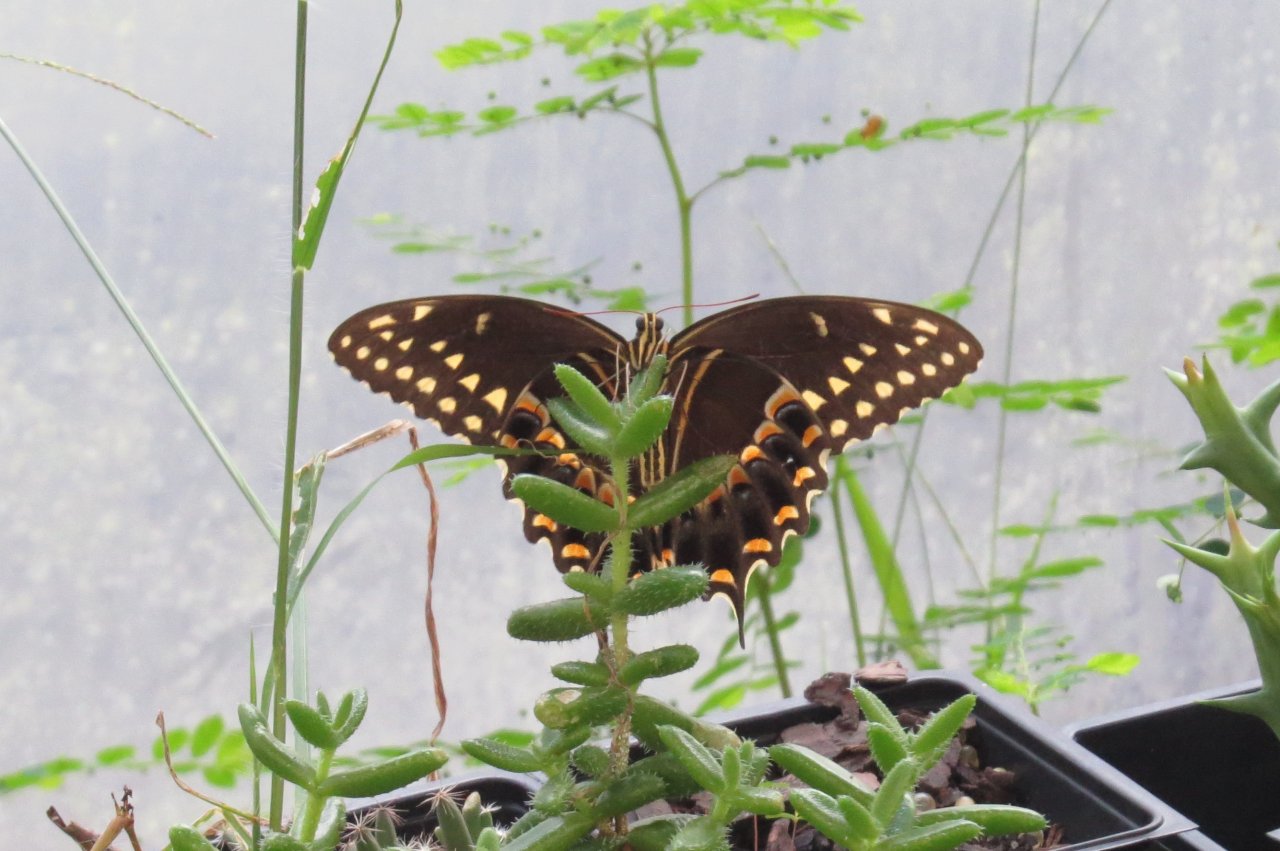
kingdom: Animalia
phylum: Arthropoda
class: Insecta
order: Lepidoptera
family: Papilionidae
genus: Pterourus
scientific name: Pterourus palamedes
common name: Palamedes Swallowtail
